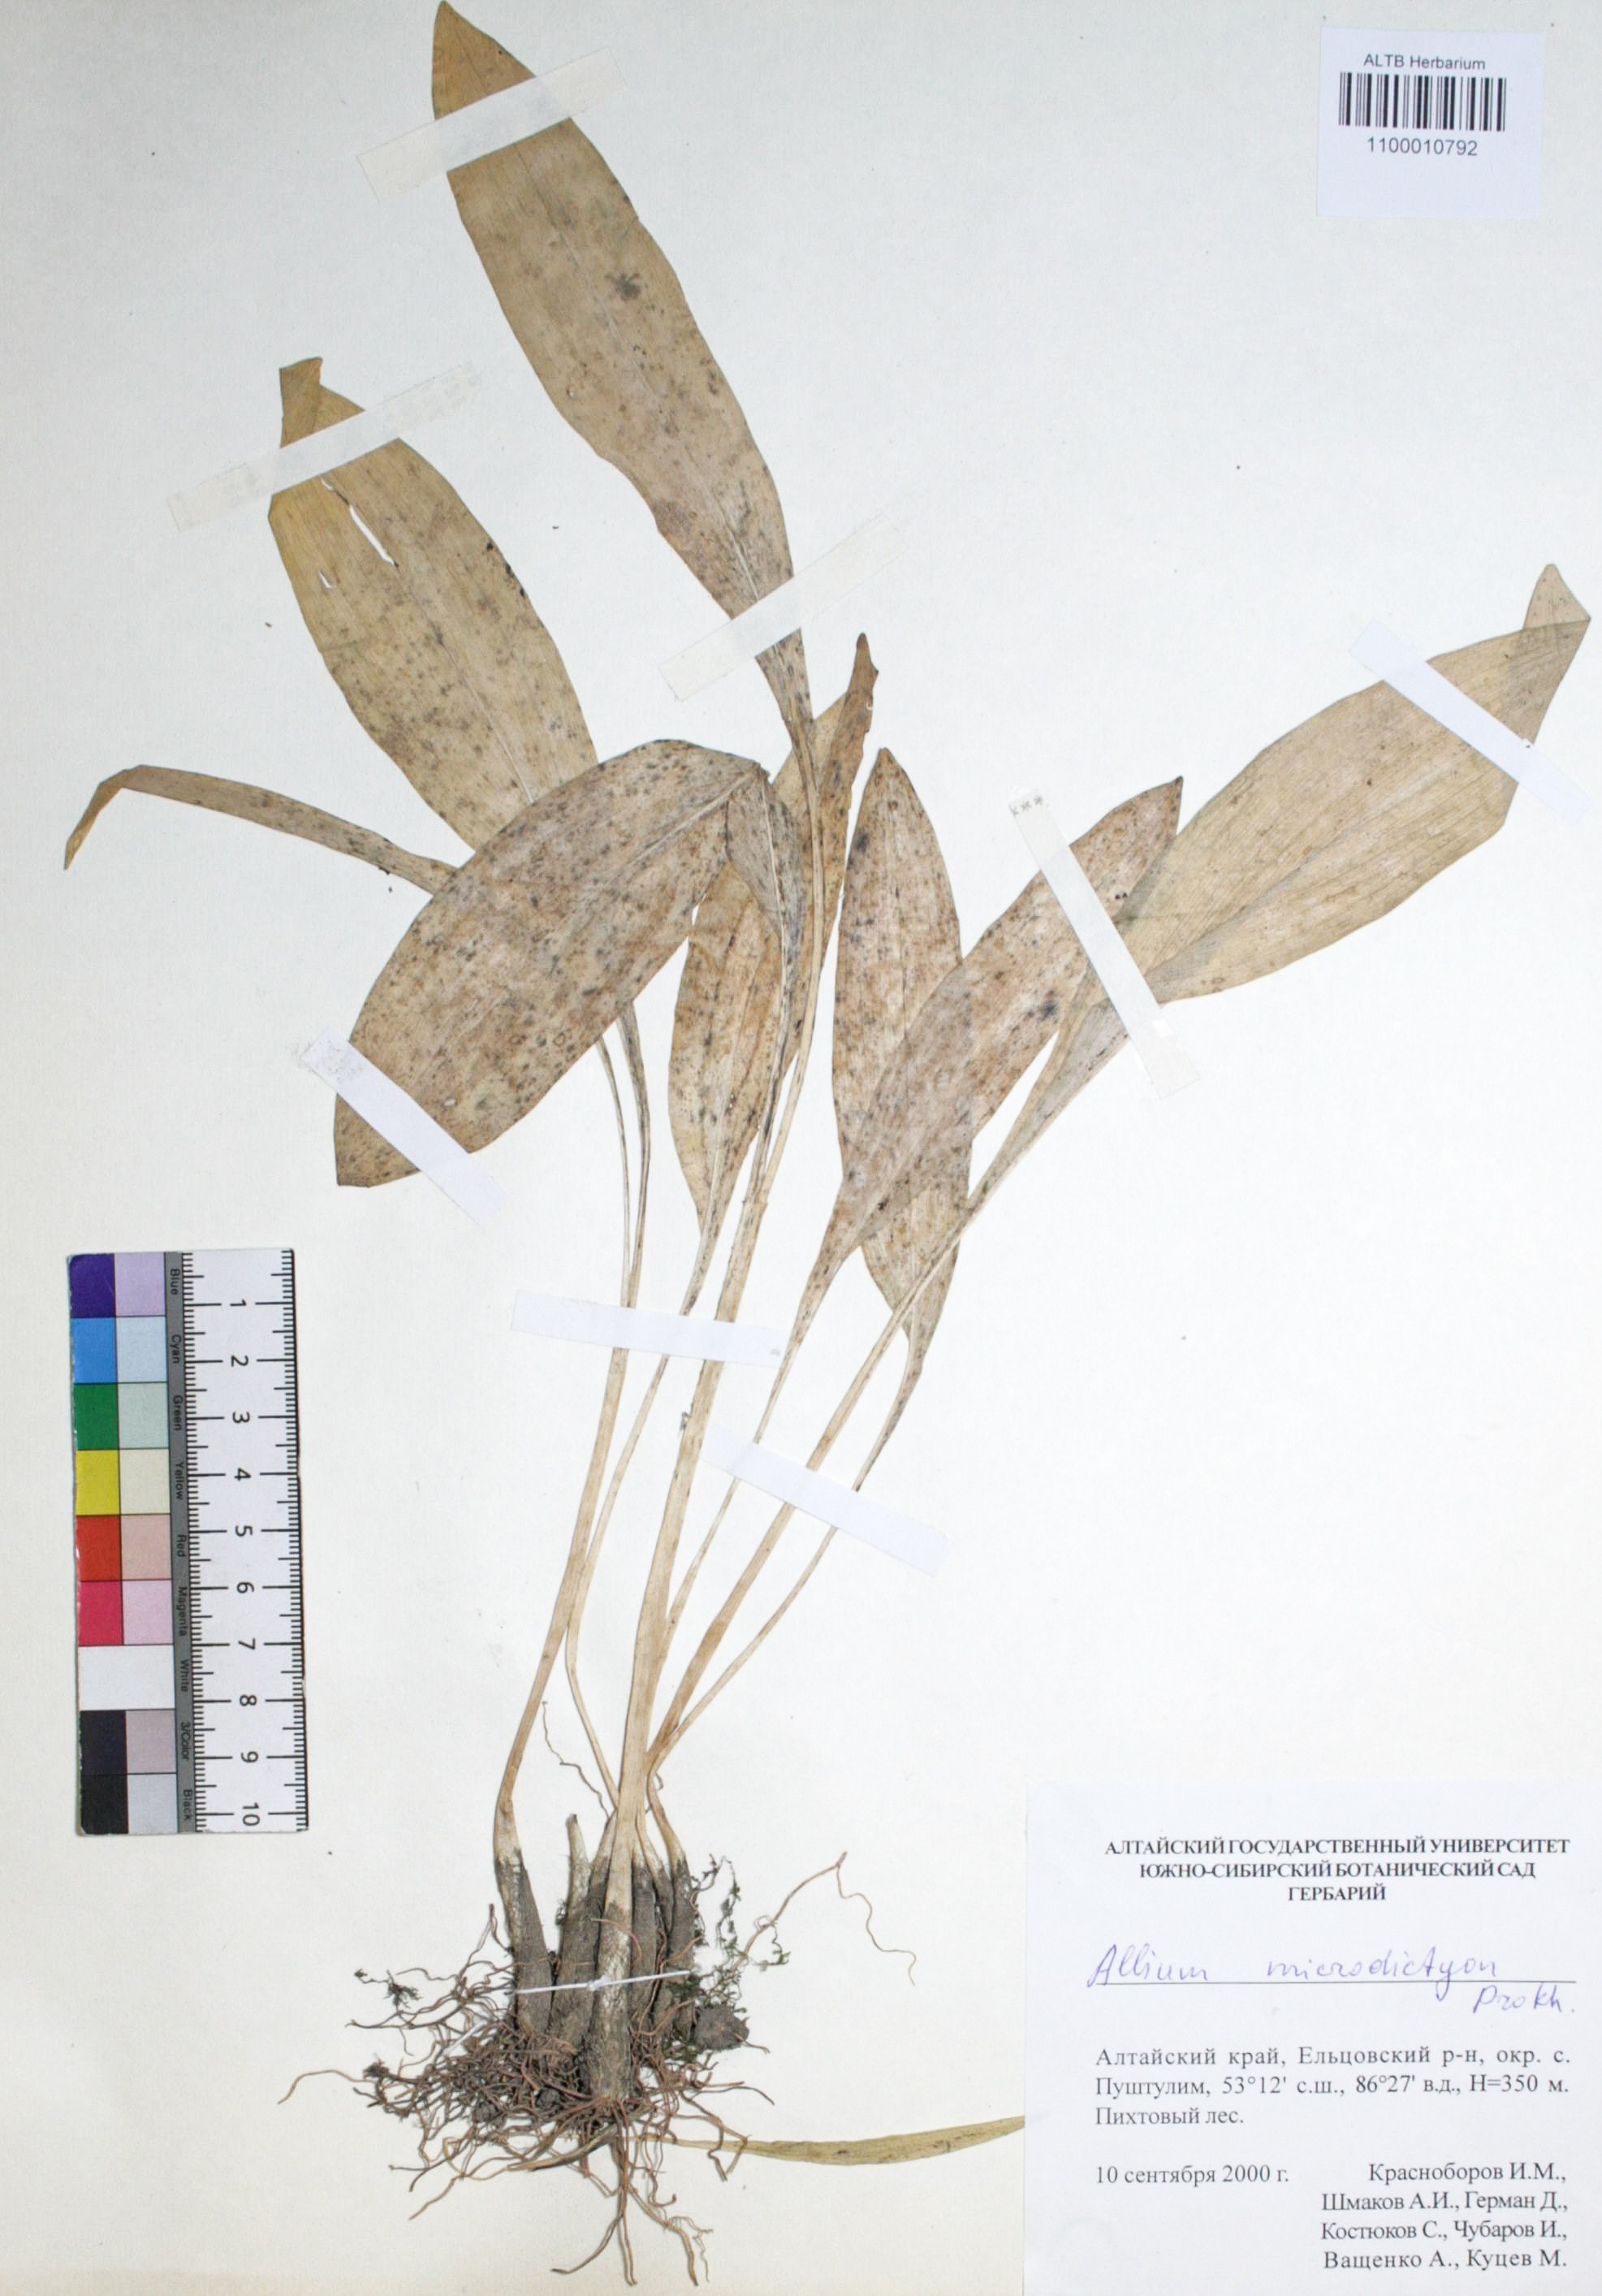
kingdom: Plantae
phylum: Tracheophyta
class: Liliopsida
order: Asparagales
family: Amaryllidaceae
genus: Allium
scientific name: Allium microdictyon
